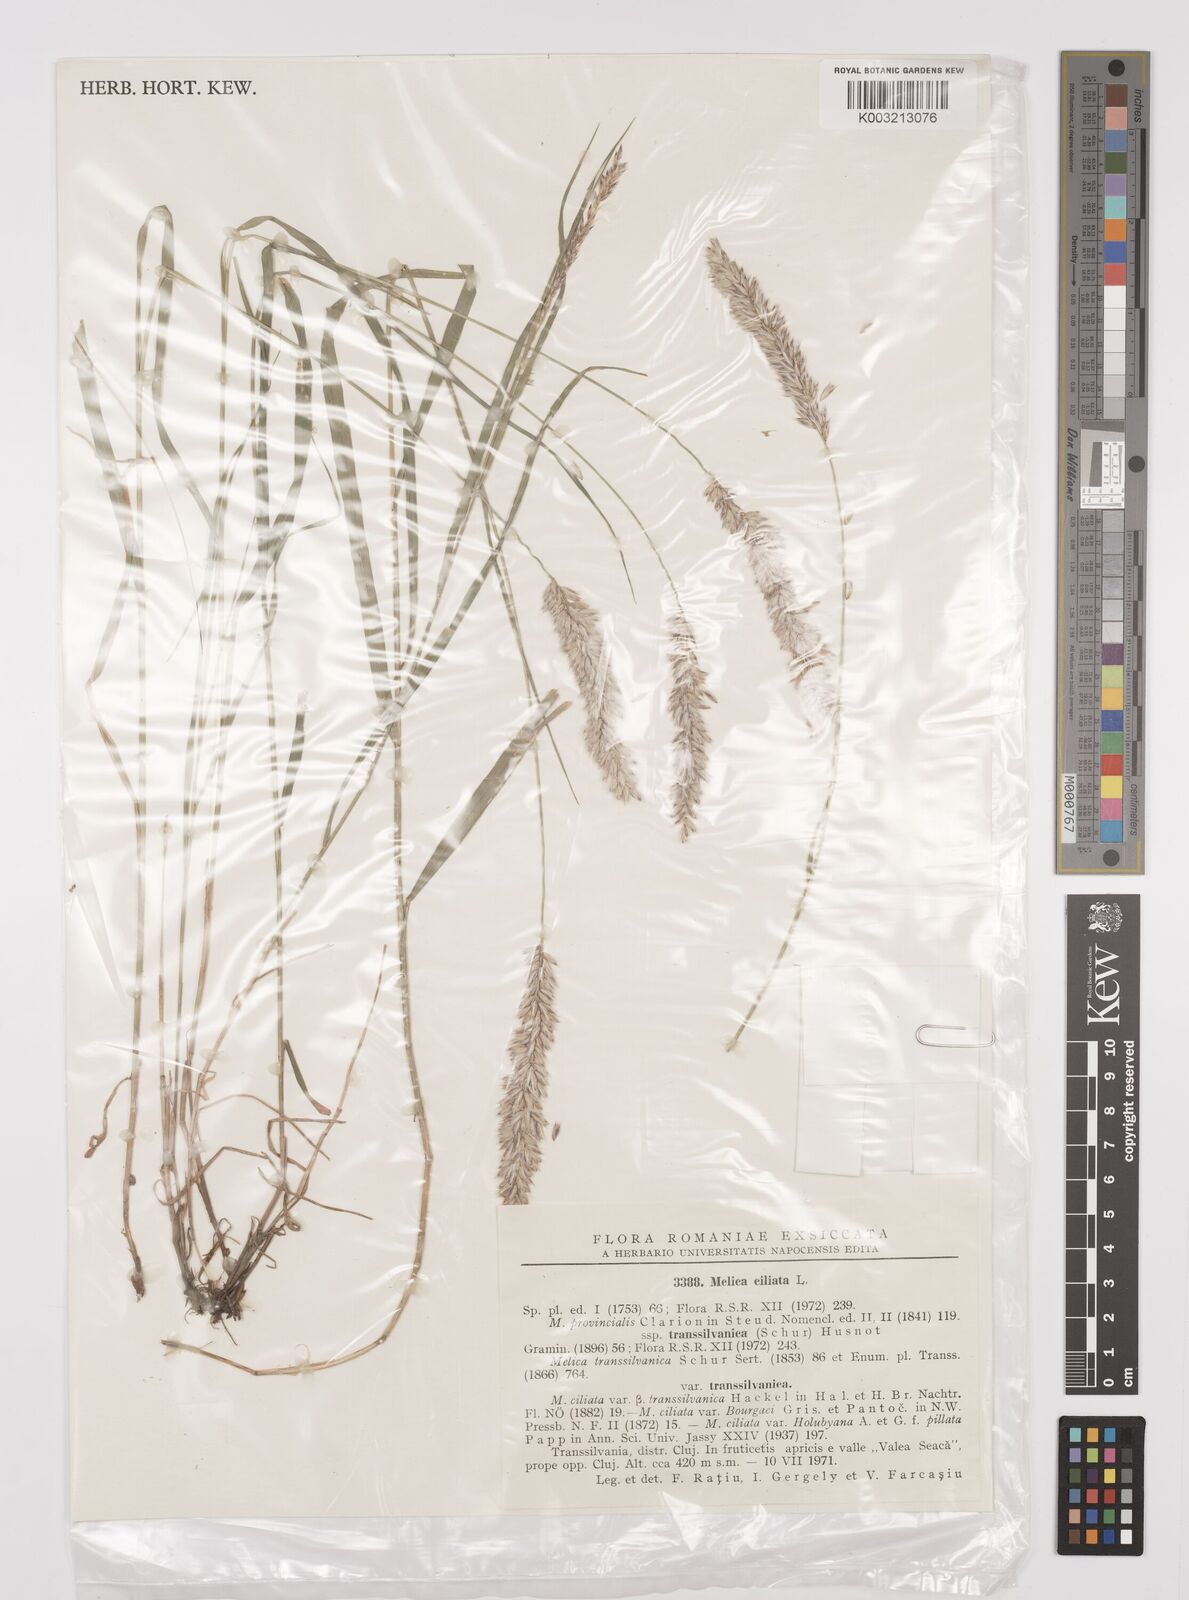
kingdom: Plantae
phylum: Tracheophyta
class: Liliopsida
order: Poales
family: Poaceae
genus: Melica
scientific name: Melica ciliata
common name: Hairy melicgrass
